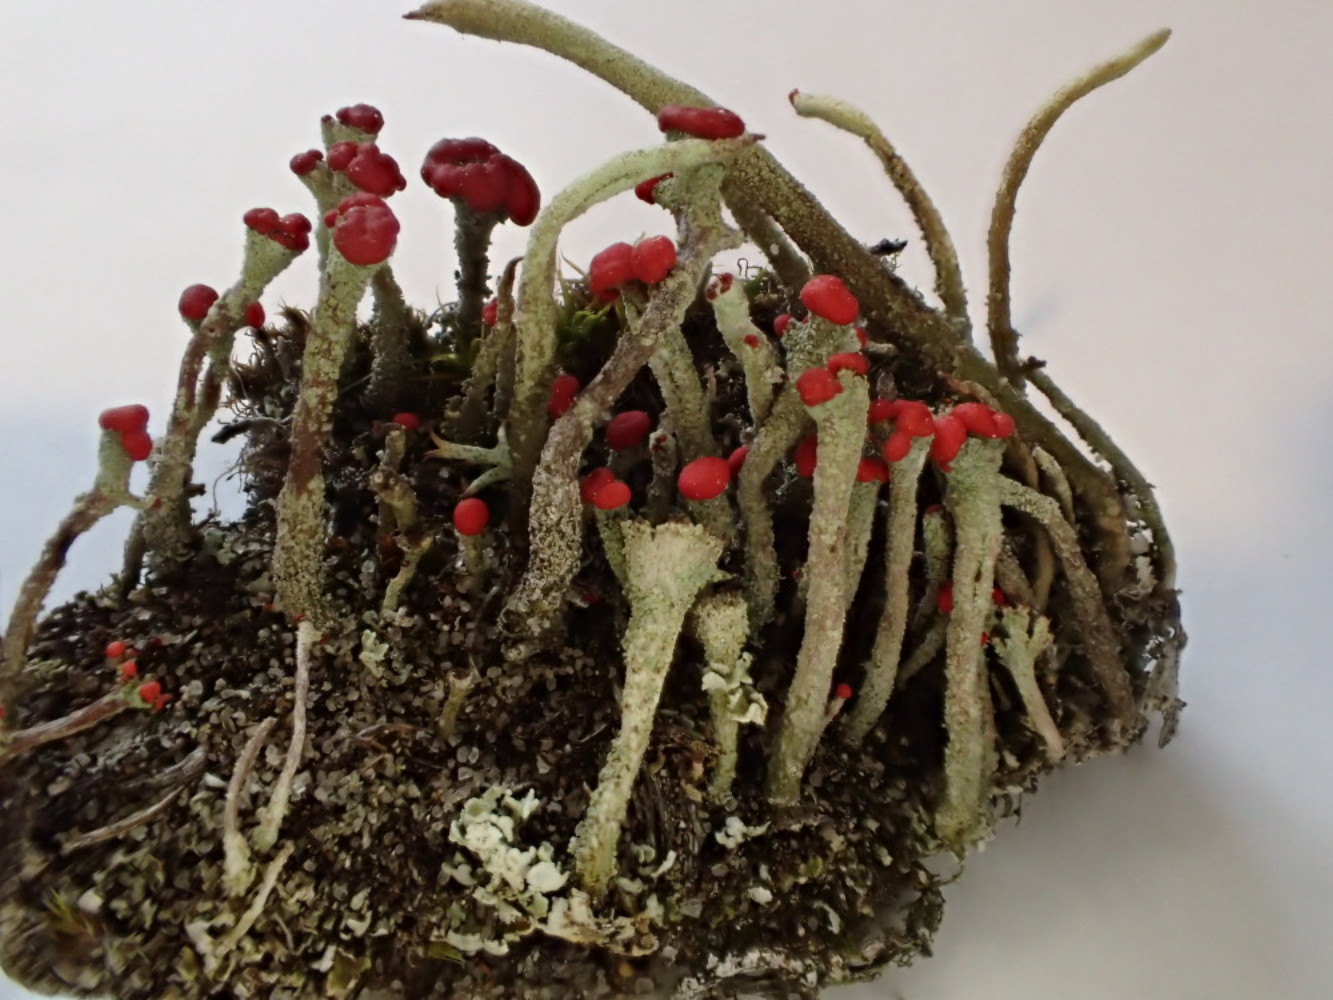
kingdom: Fungi
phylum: Ascomycota
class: Lecanoromycetes
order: Lecanorales
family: Cladoniaceae
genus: Cladonia
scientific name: Cladonia floerkeana
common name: lakrød bægerlav
